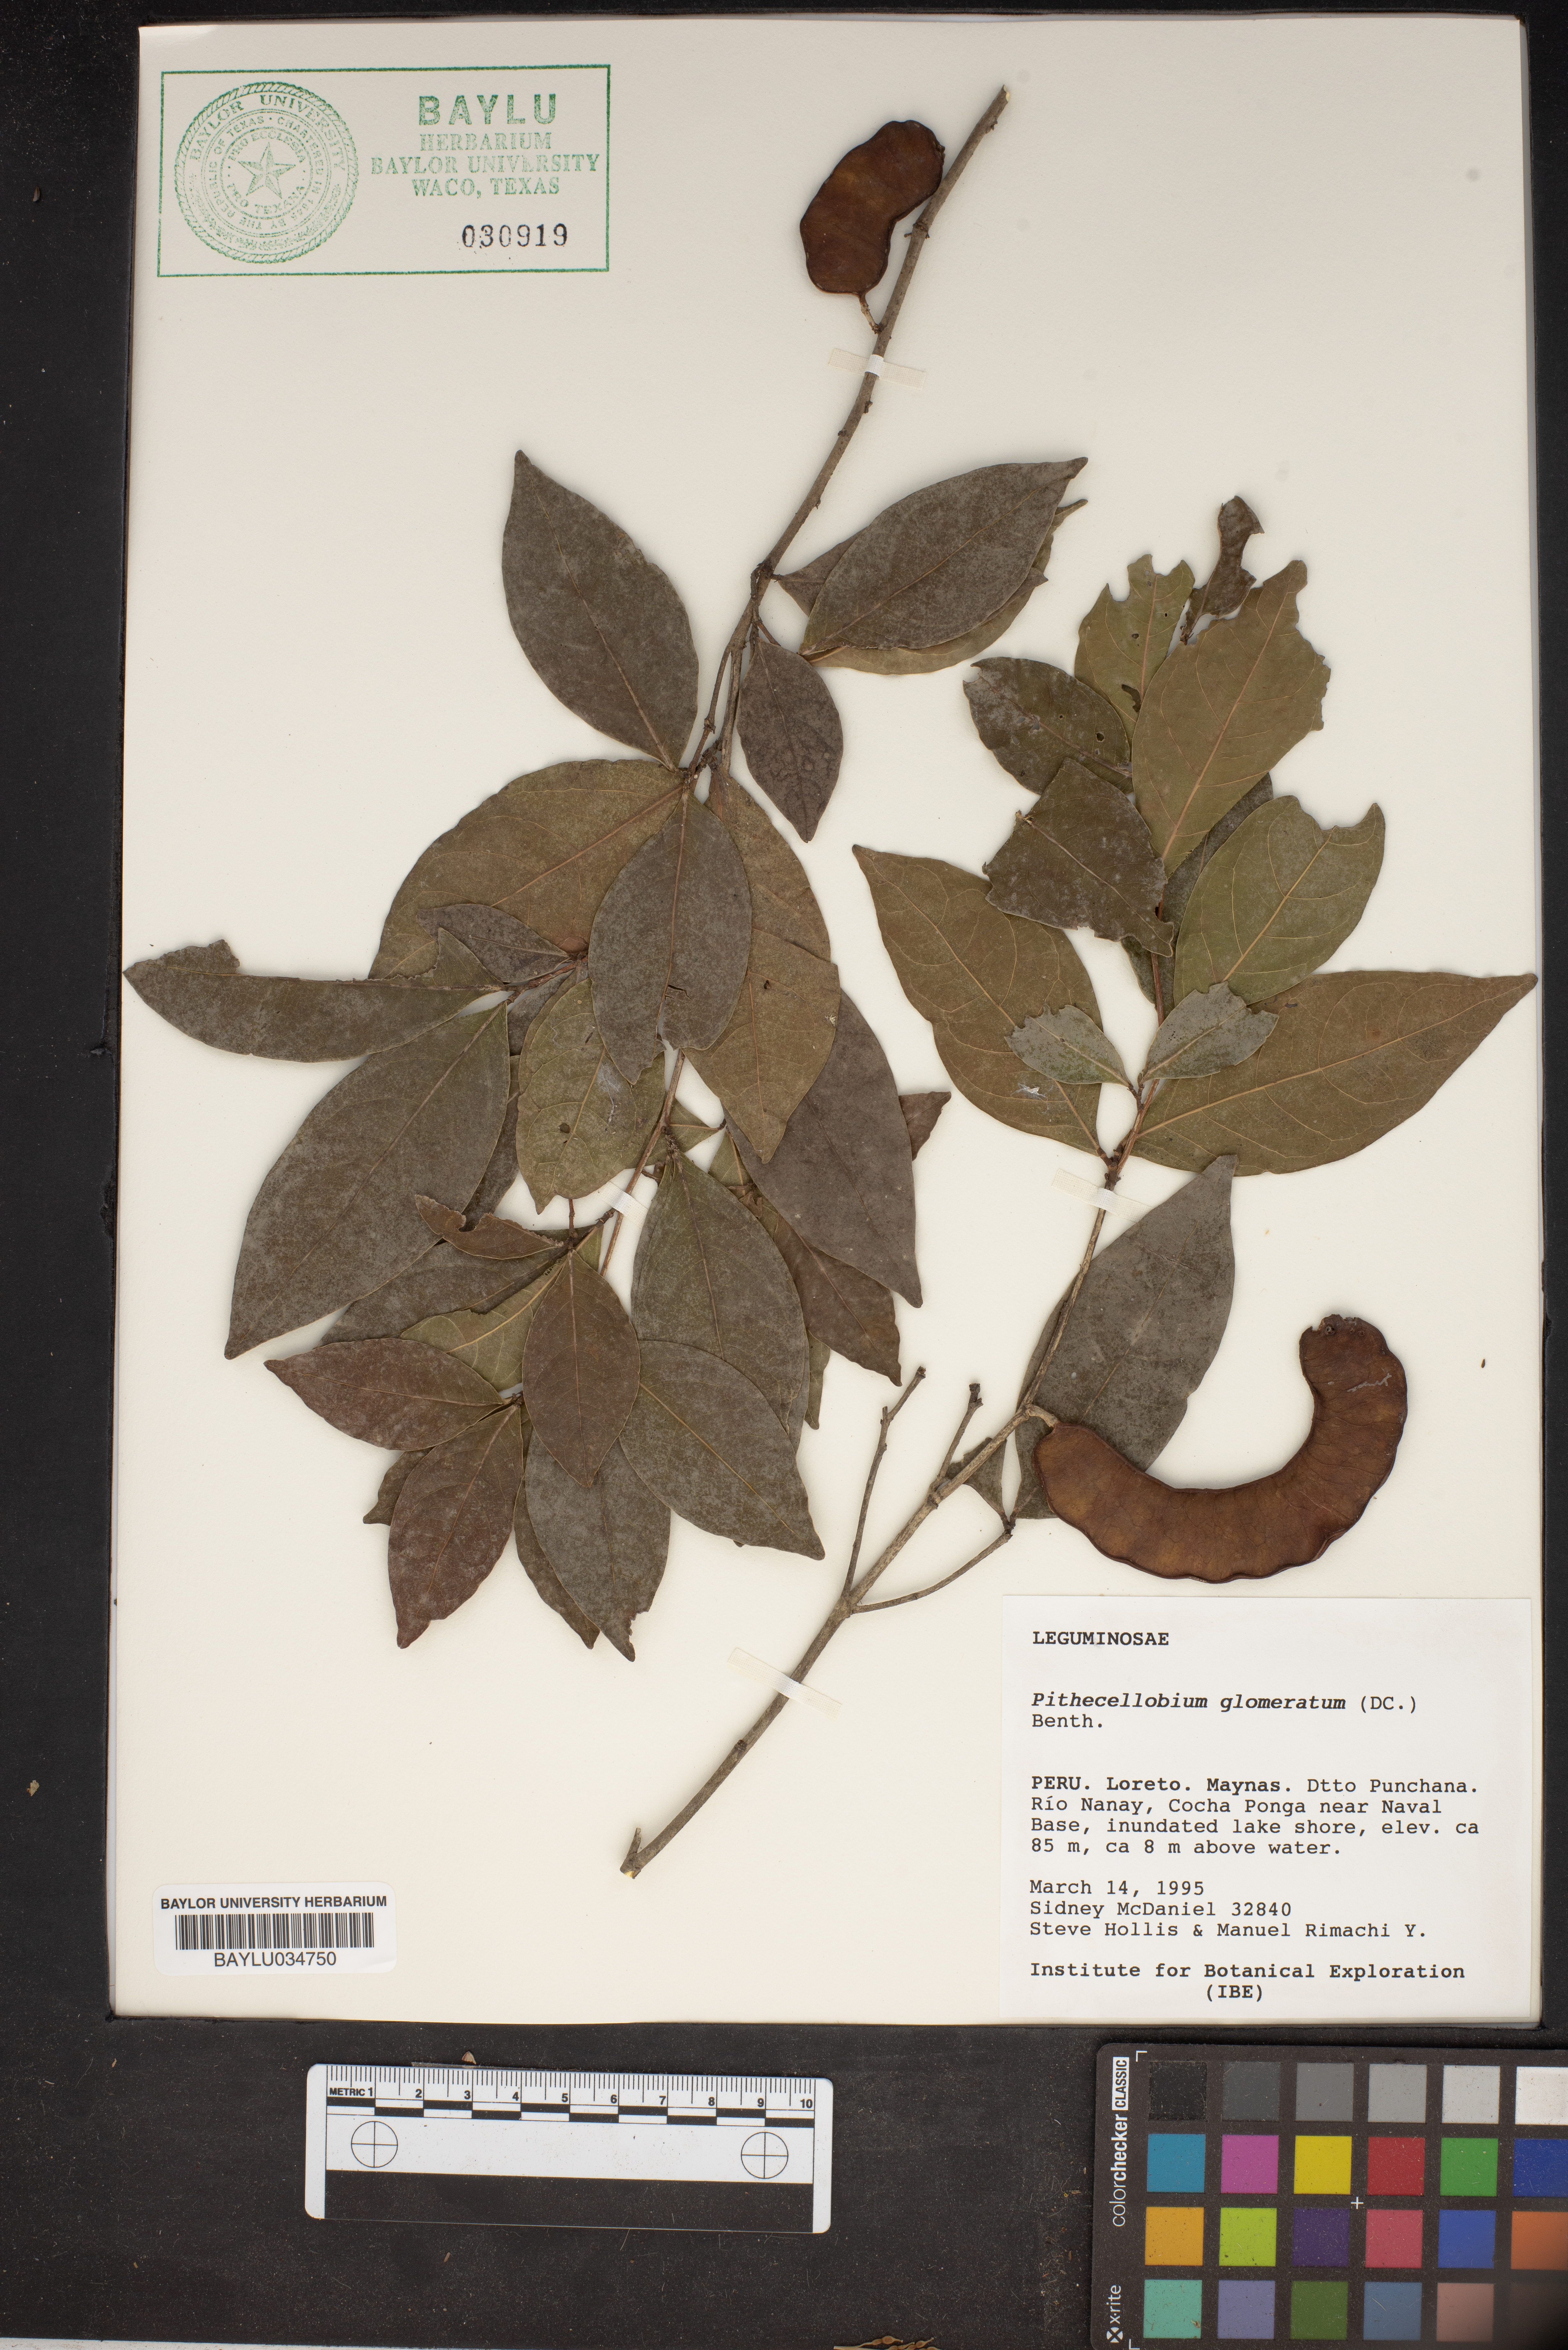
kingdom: Plantae
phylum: Tracheophyta
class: Magnoliopsida
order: Fabales
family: Fabaceae
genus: Zygia
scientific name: Zygia cataractae
